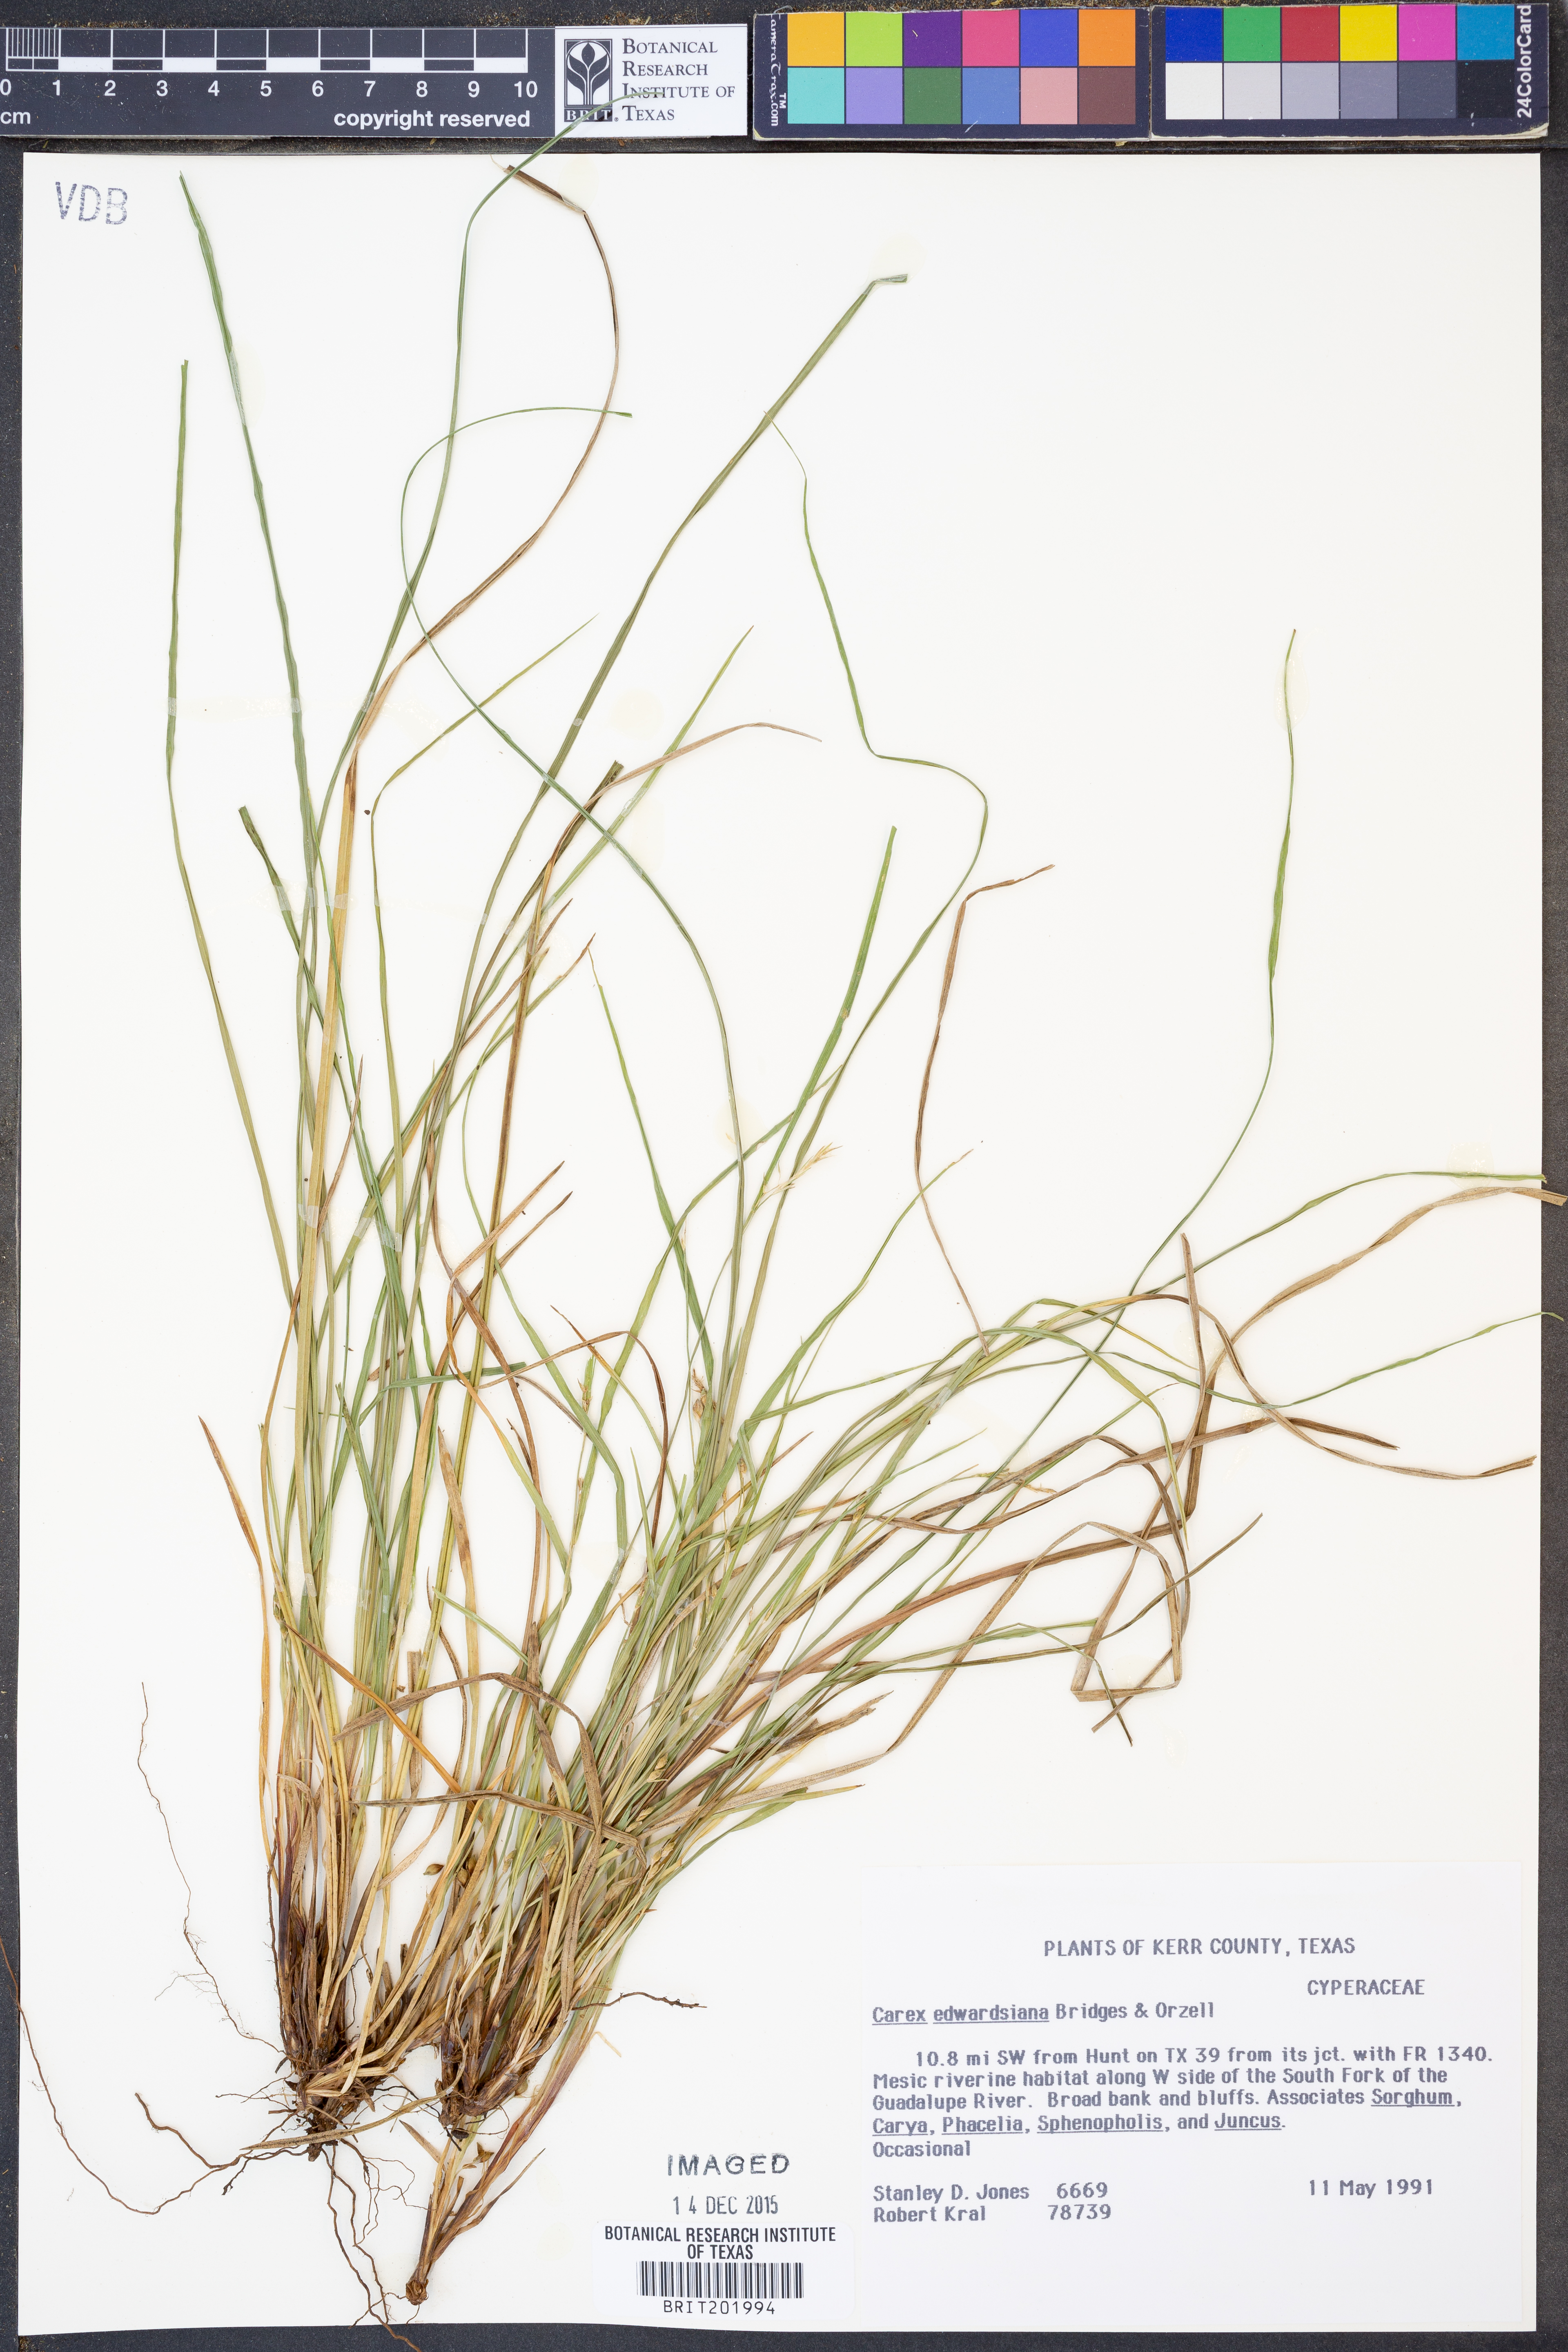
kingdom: Plantae
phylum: Tracheophyta
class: Liliopsida
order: Poales
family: Cyperaceae
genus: Carex
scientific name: Carex edwardsiana
